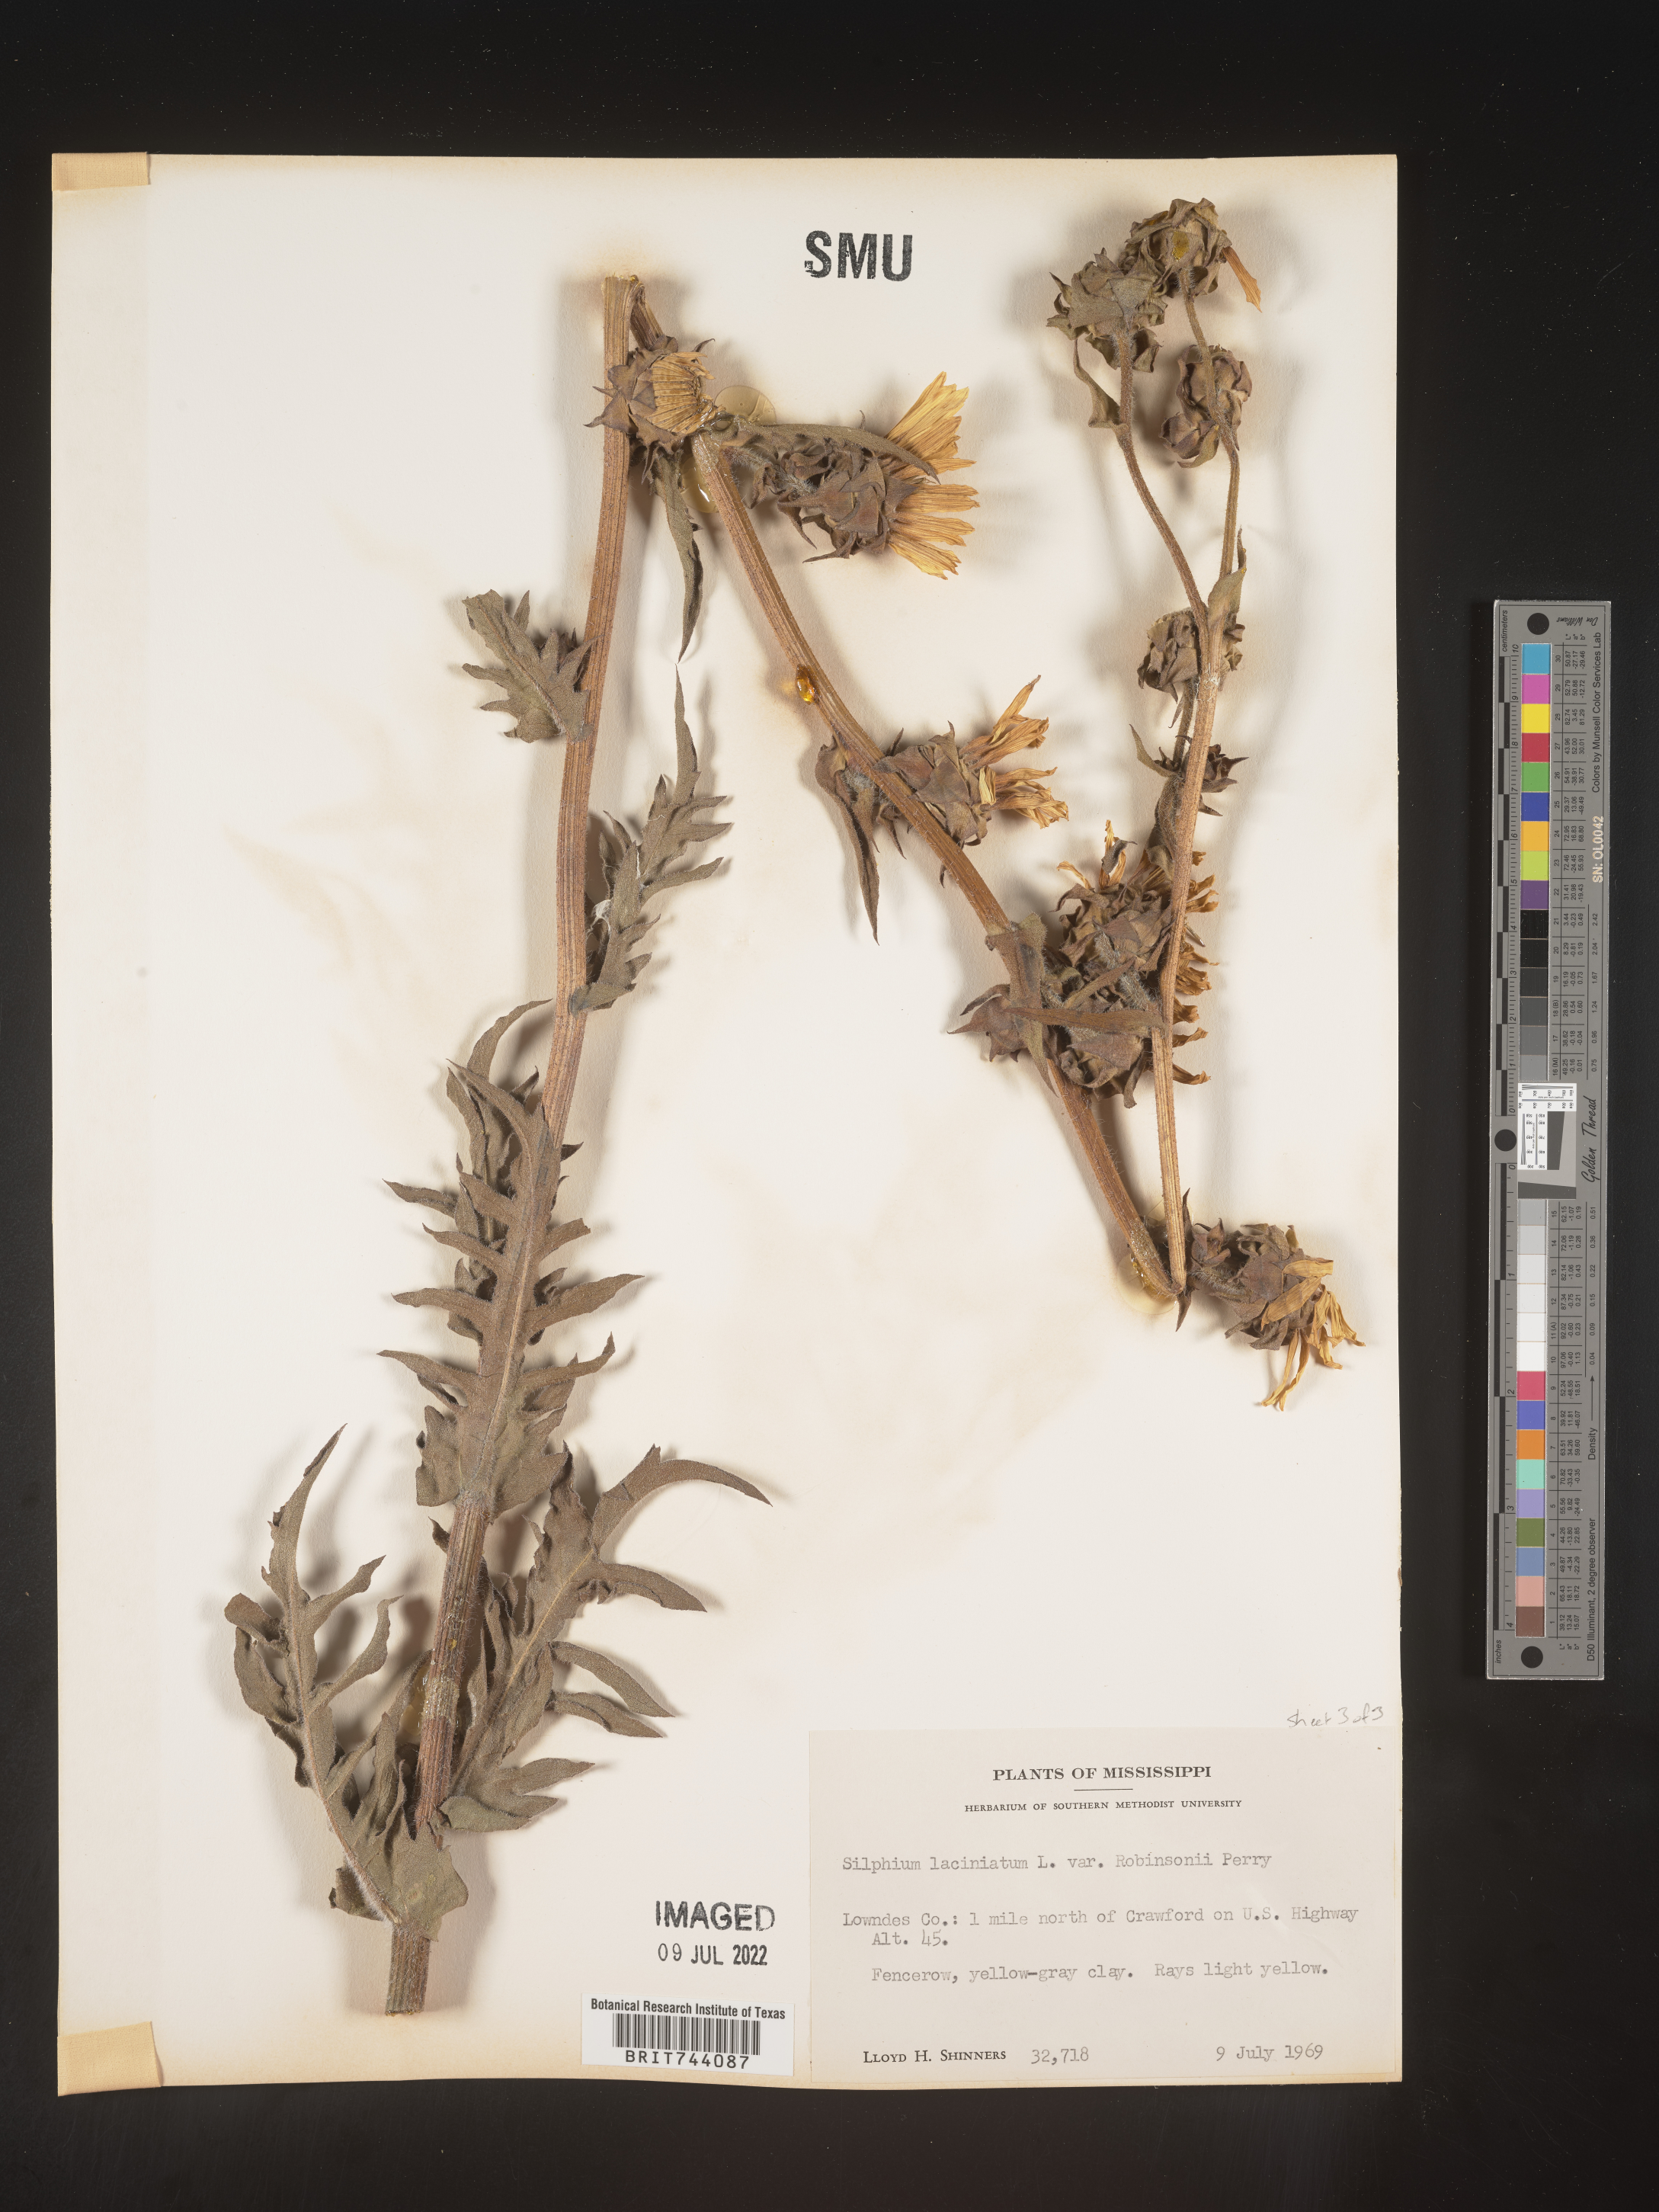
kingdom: Plantae
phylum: Tracheophyta
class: Magnoliopsida
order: Asterales
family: Asteraceae
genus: Silphium
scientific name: Silphium laciniatum
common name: Polarplant
